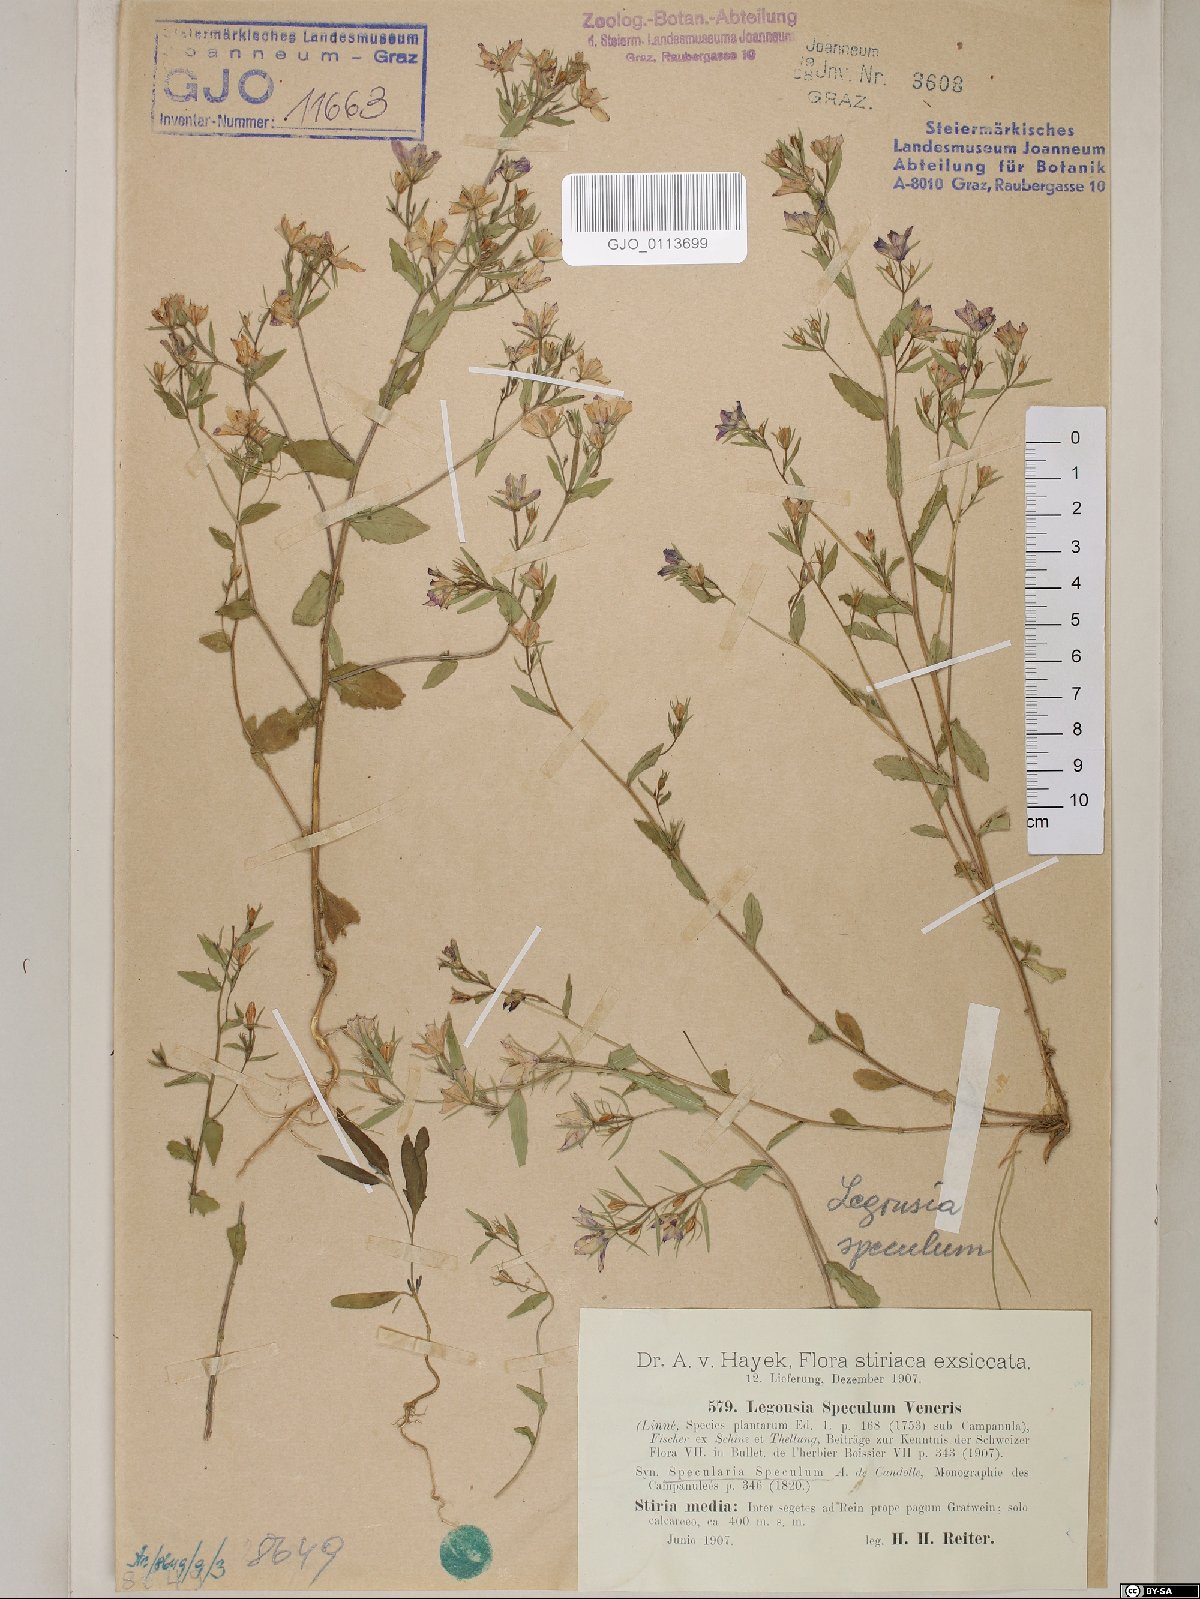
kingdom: Plantae
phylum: Tracheophyta
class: Magnoliopsida
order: Asterales
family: Campanulaceae
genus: Legousia
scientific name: Legousia speculum-veneris
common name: Large venus's-looking-glass
